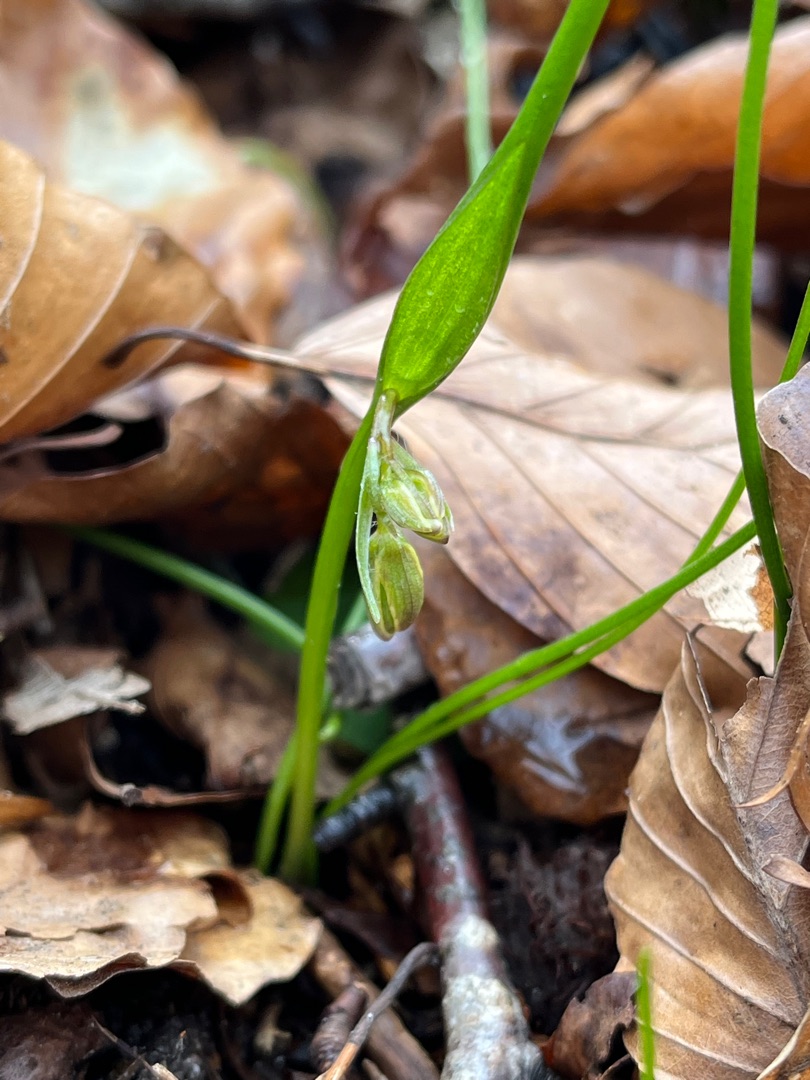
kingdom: Plantae
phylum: Tracheophyta
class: Liliopsida
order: Liliales
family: Liliaceae
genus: Gagea
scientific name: Gagea spathacea
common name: Hylster-guldstjerne
